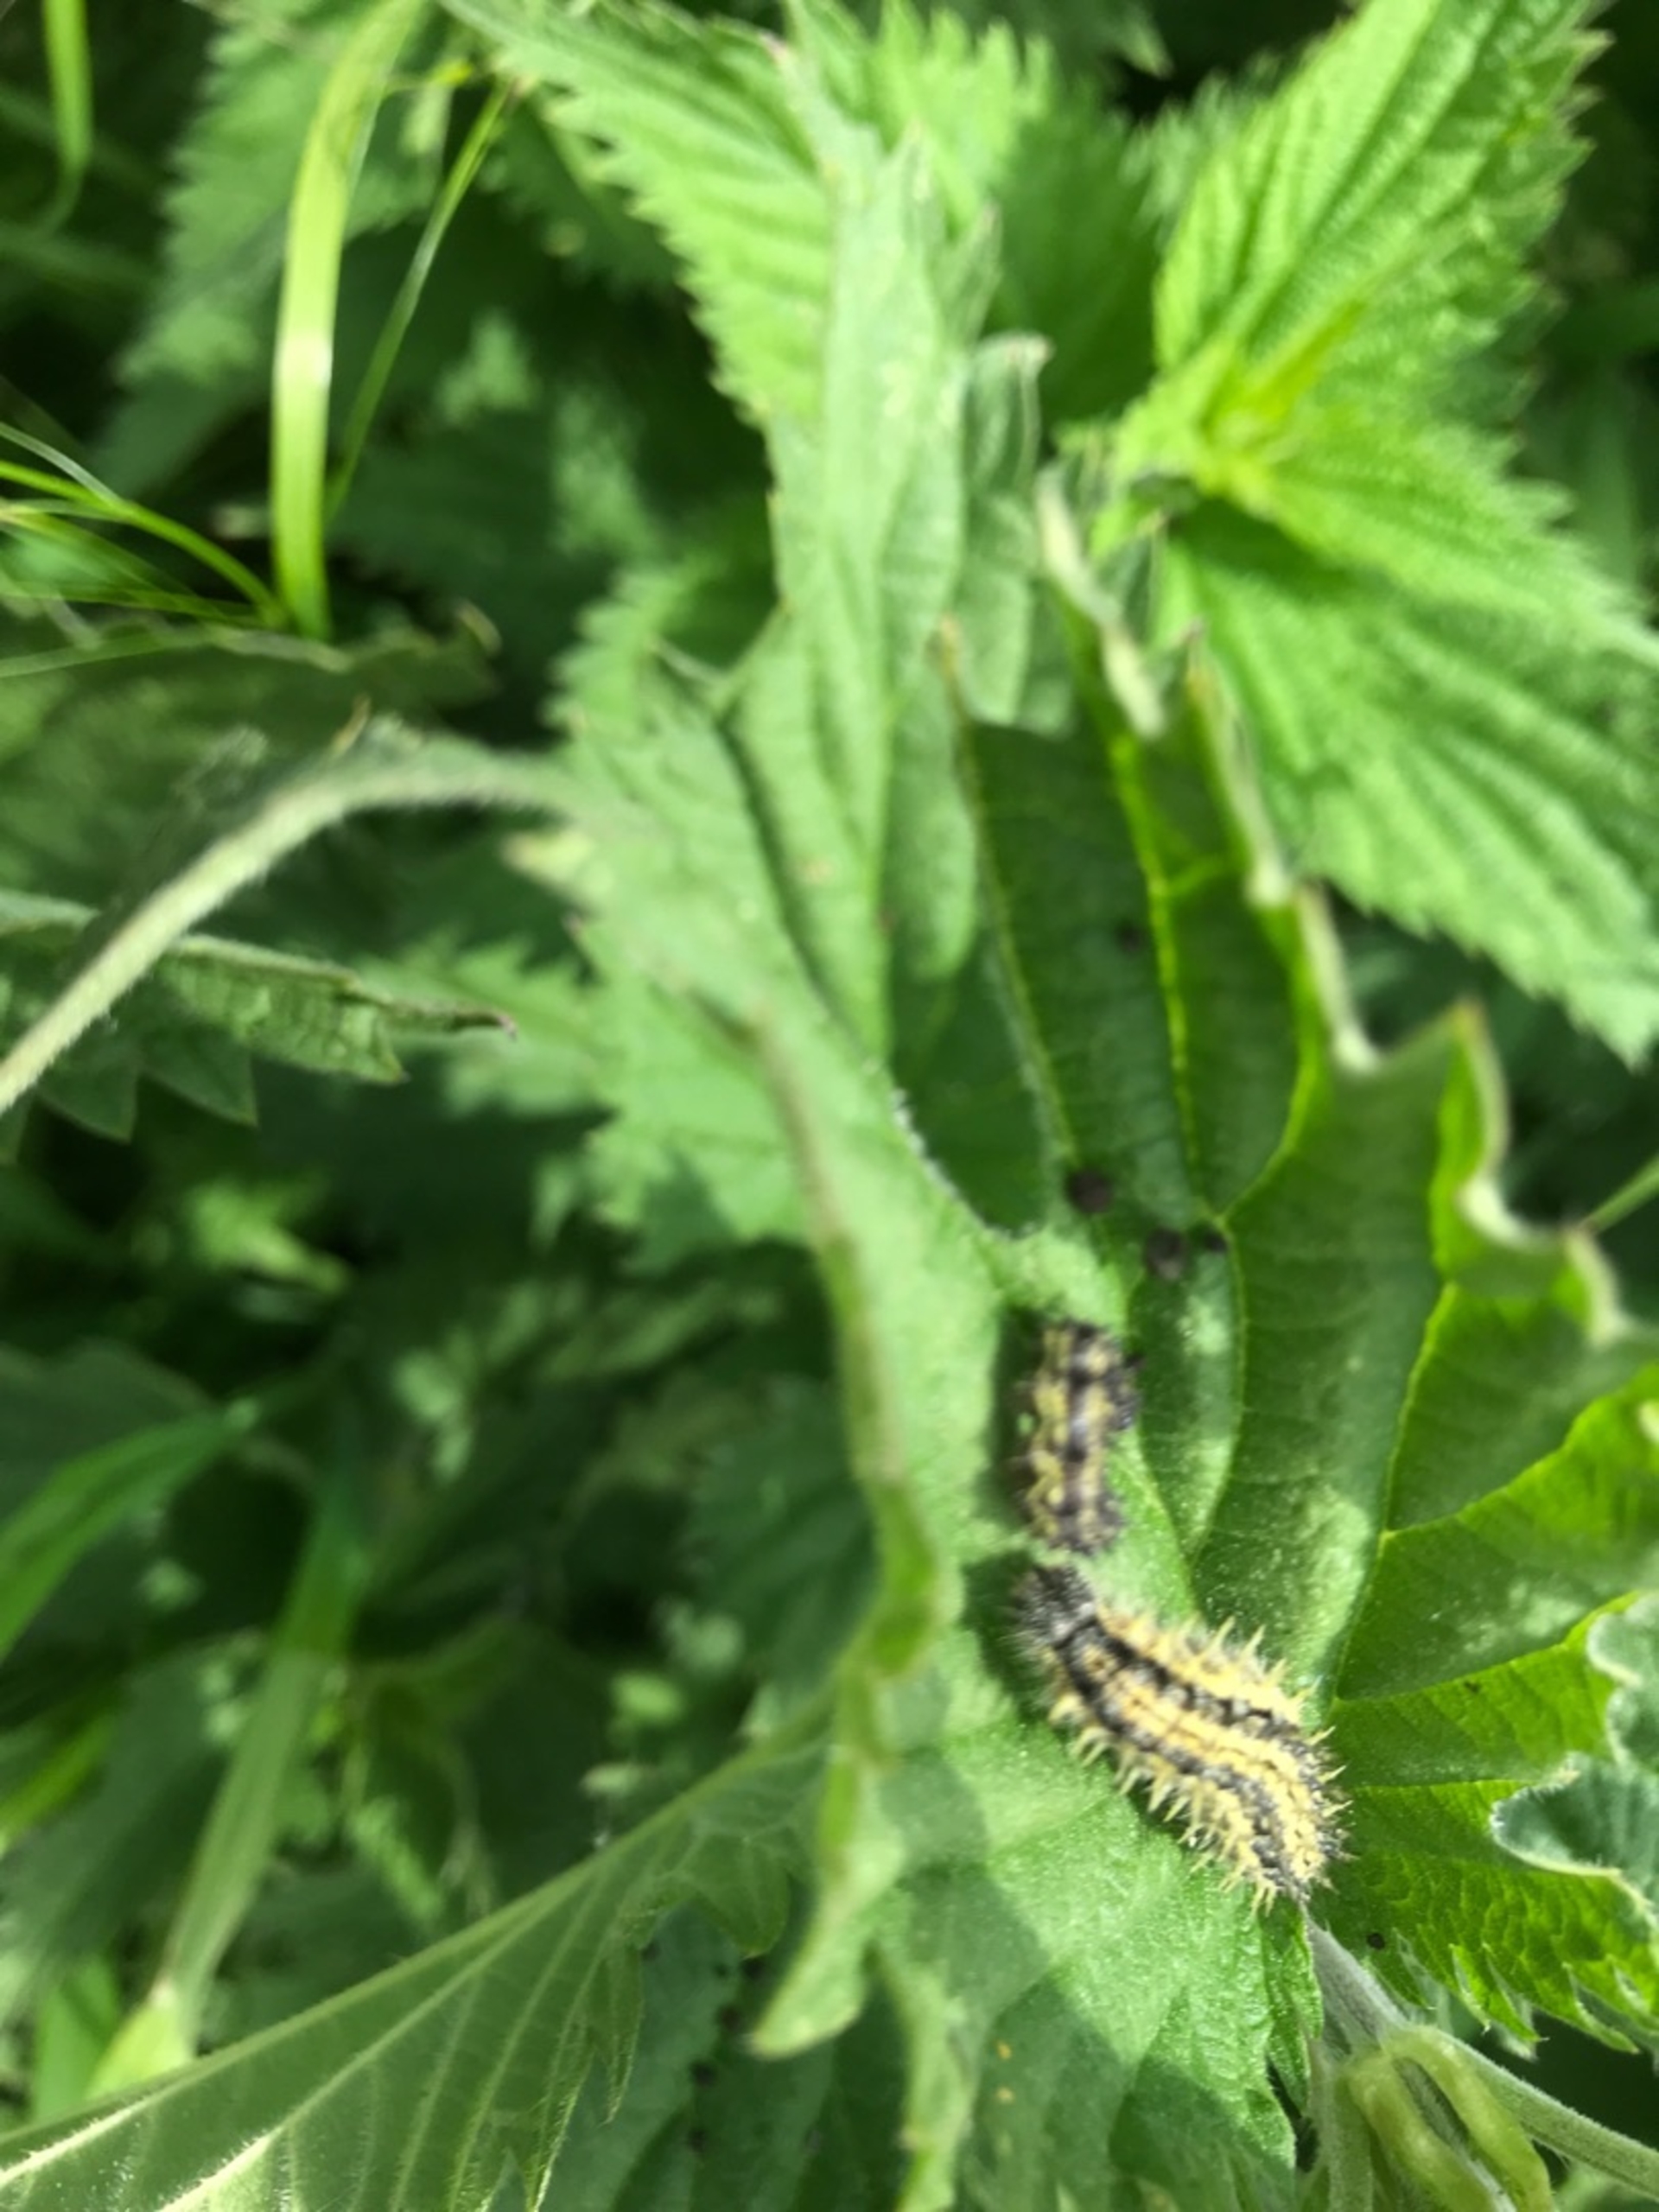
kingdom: Animalia
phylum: Arthropoda
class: Insecta
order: Lepidoptera
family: Nymphalidae
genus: Aglais
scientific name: Aglais urticae
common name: Nældens takvinge
